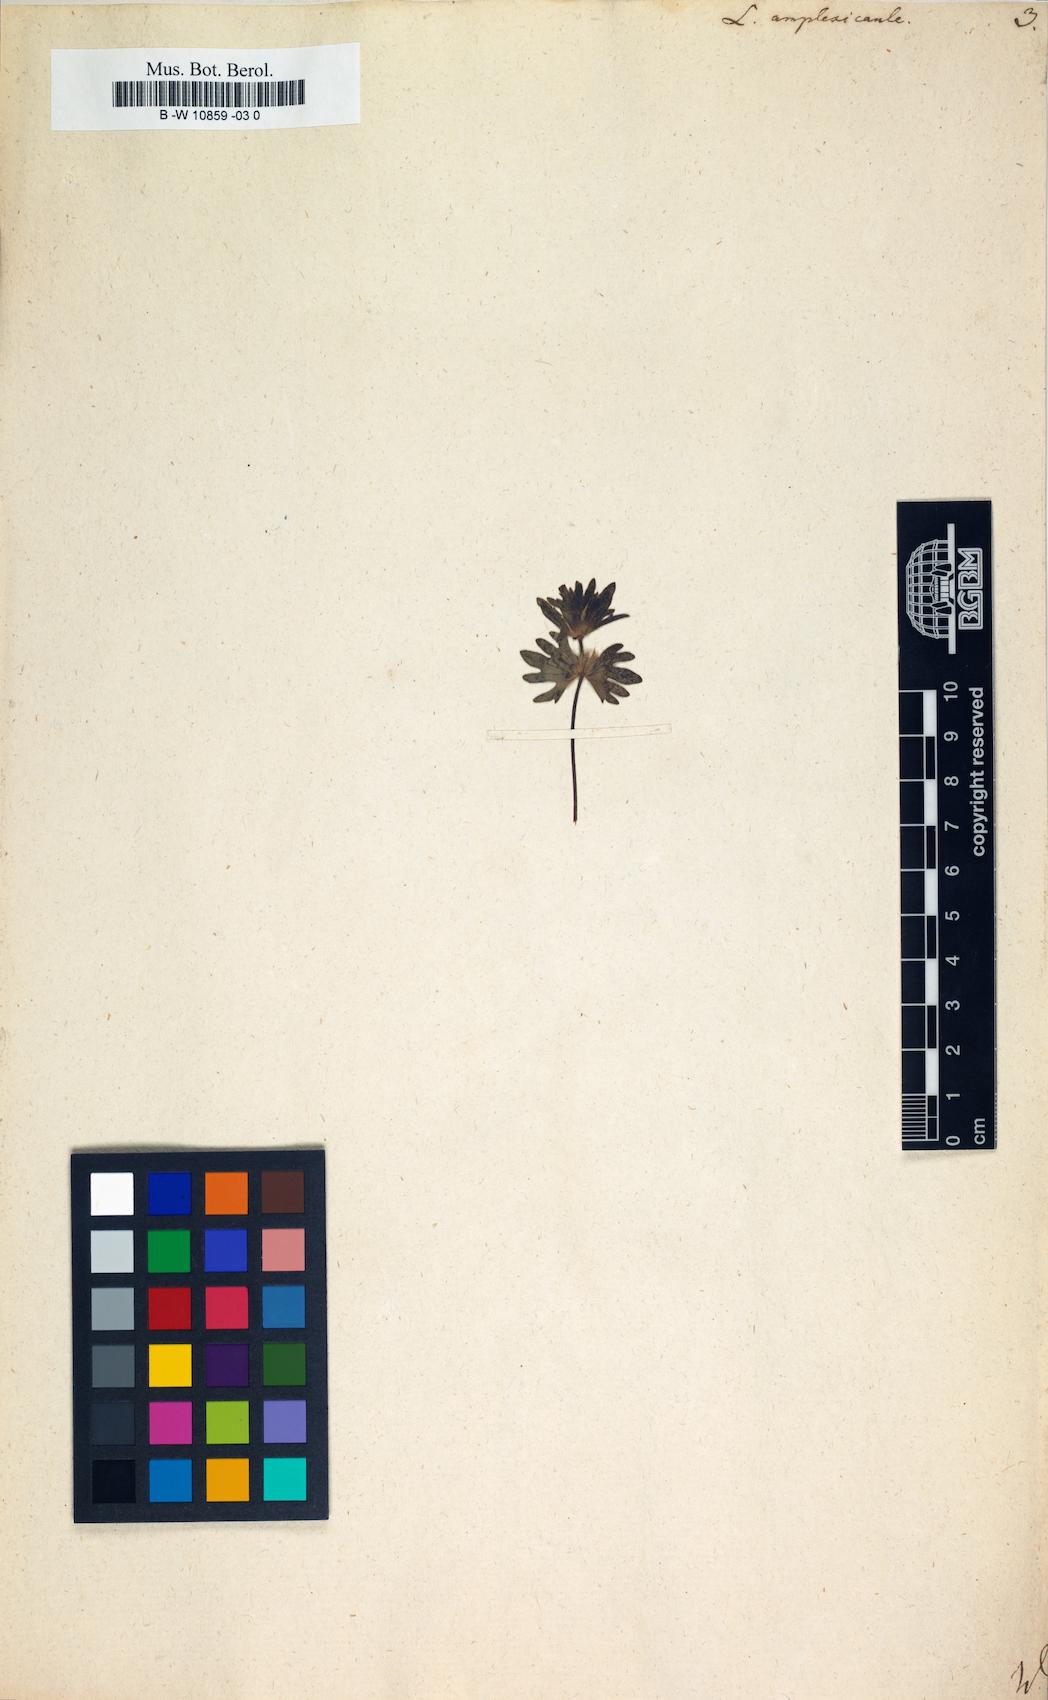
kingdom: Plantae
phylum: Tracheophyta
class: Magnoliopsida
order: Lamiales
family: Lamiaceae
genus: Lamium
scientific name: Lamium amplexicaule
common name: Henbit dead-nettle
